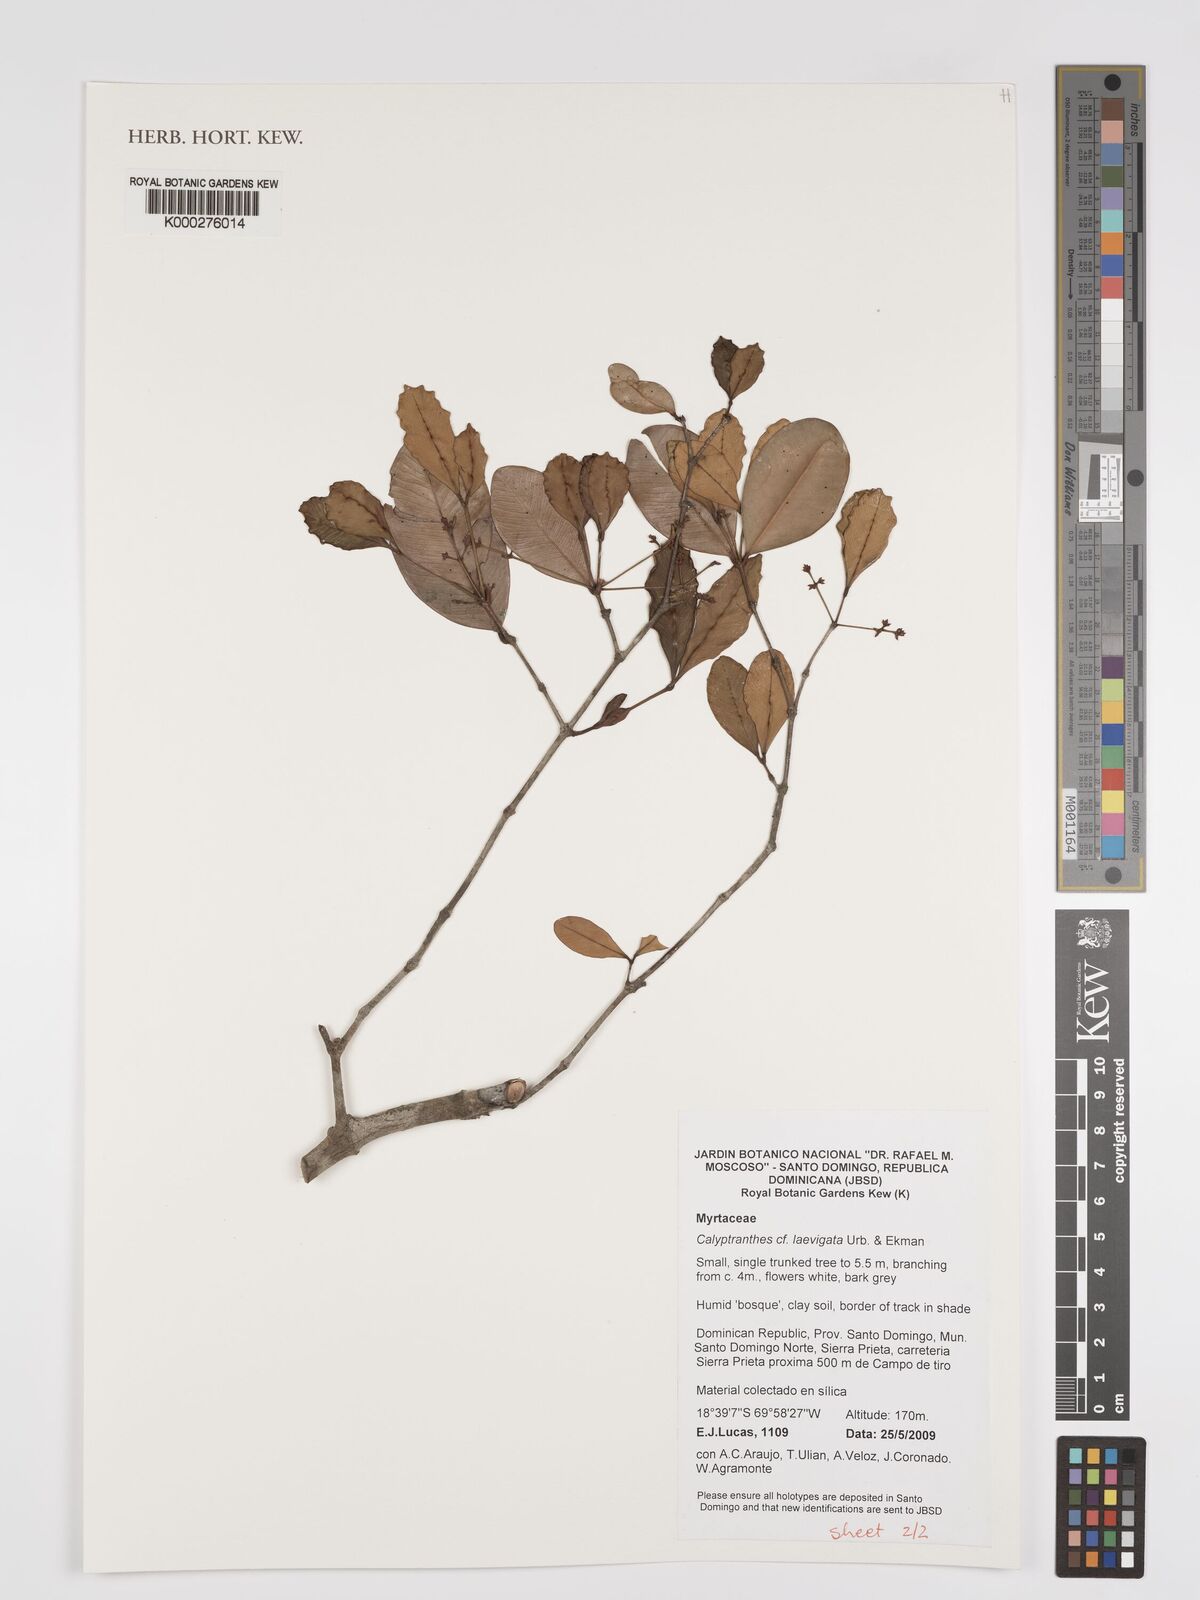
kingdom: Plantae
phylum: Tracheophyta
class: Magnoliopsida
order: Myrtales
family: Myrtaceae
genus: Myrcia
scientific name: Myrcia neolaevigata
